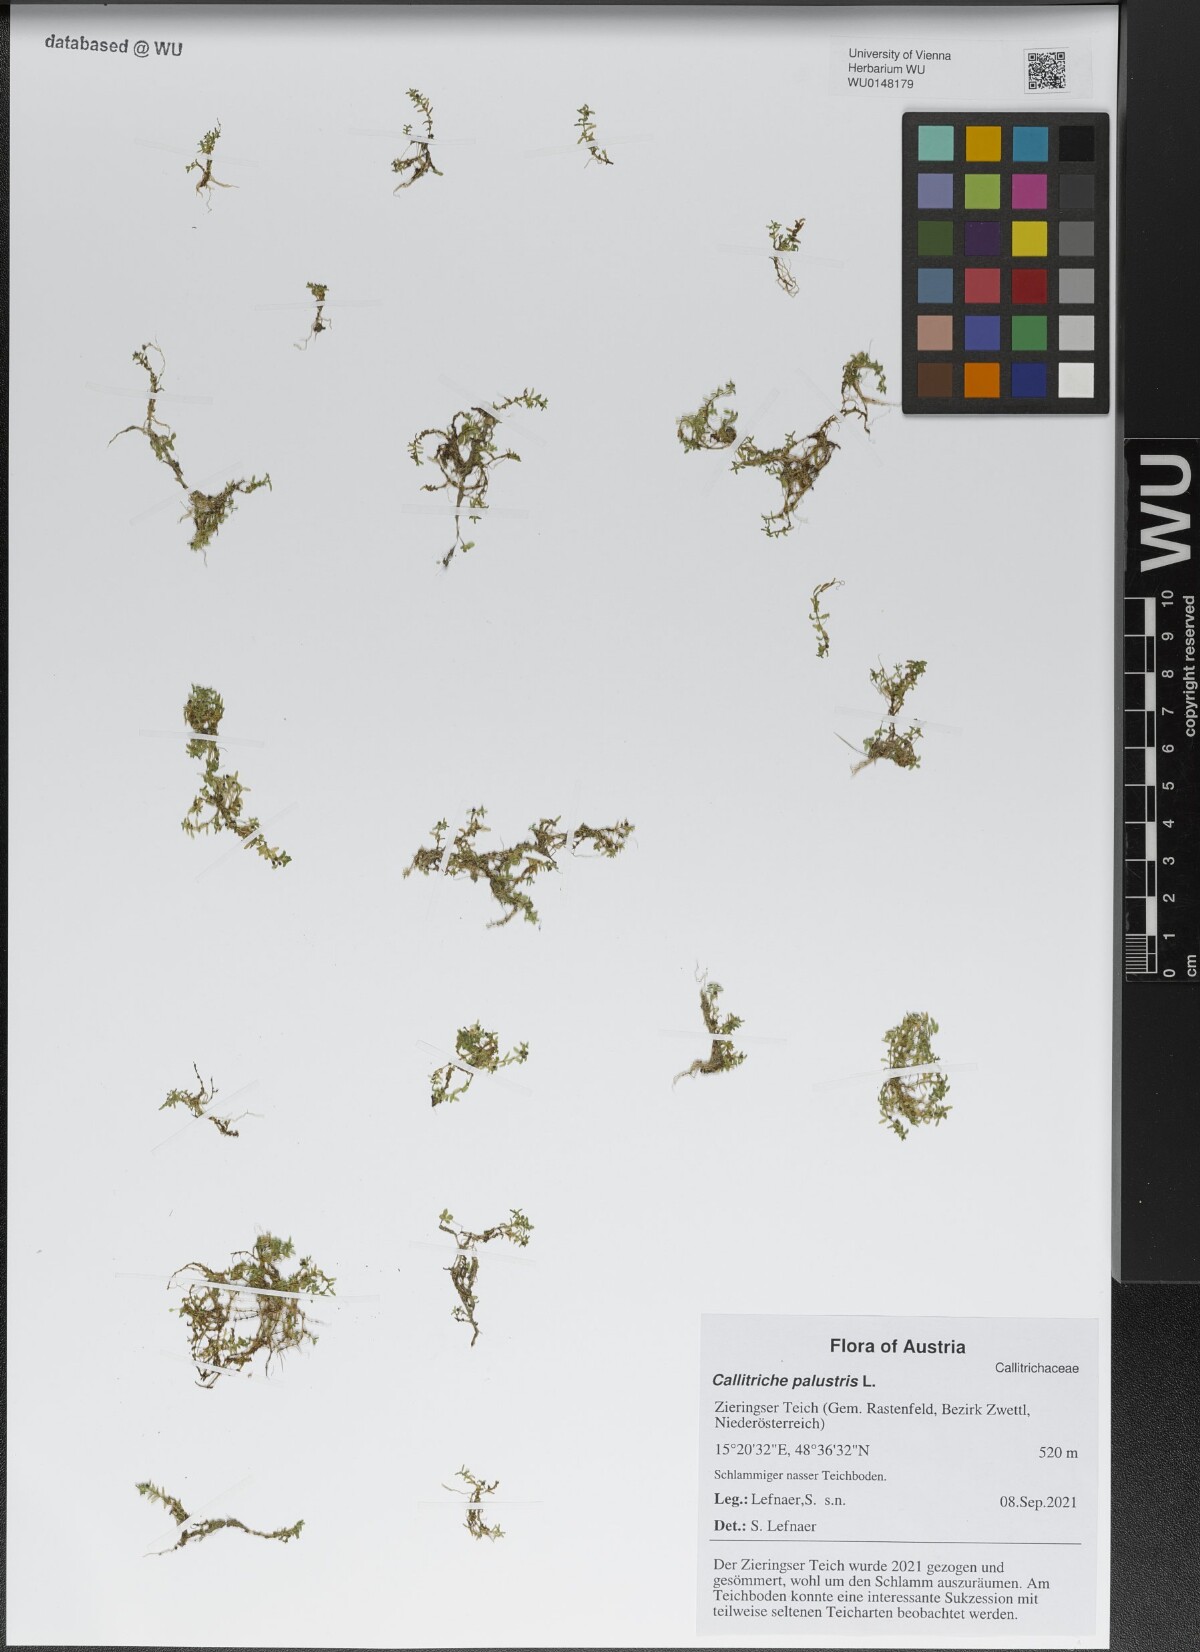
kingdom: Plantae
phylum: Tracheophyta
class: Magnoliopsida
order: Lamiales
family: Plantaginaceae
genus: Callitriche
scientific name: Callitriche palustris
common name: Spring water-starwort
